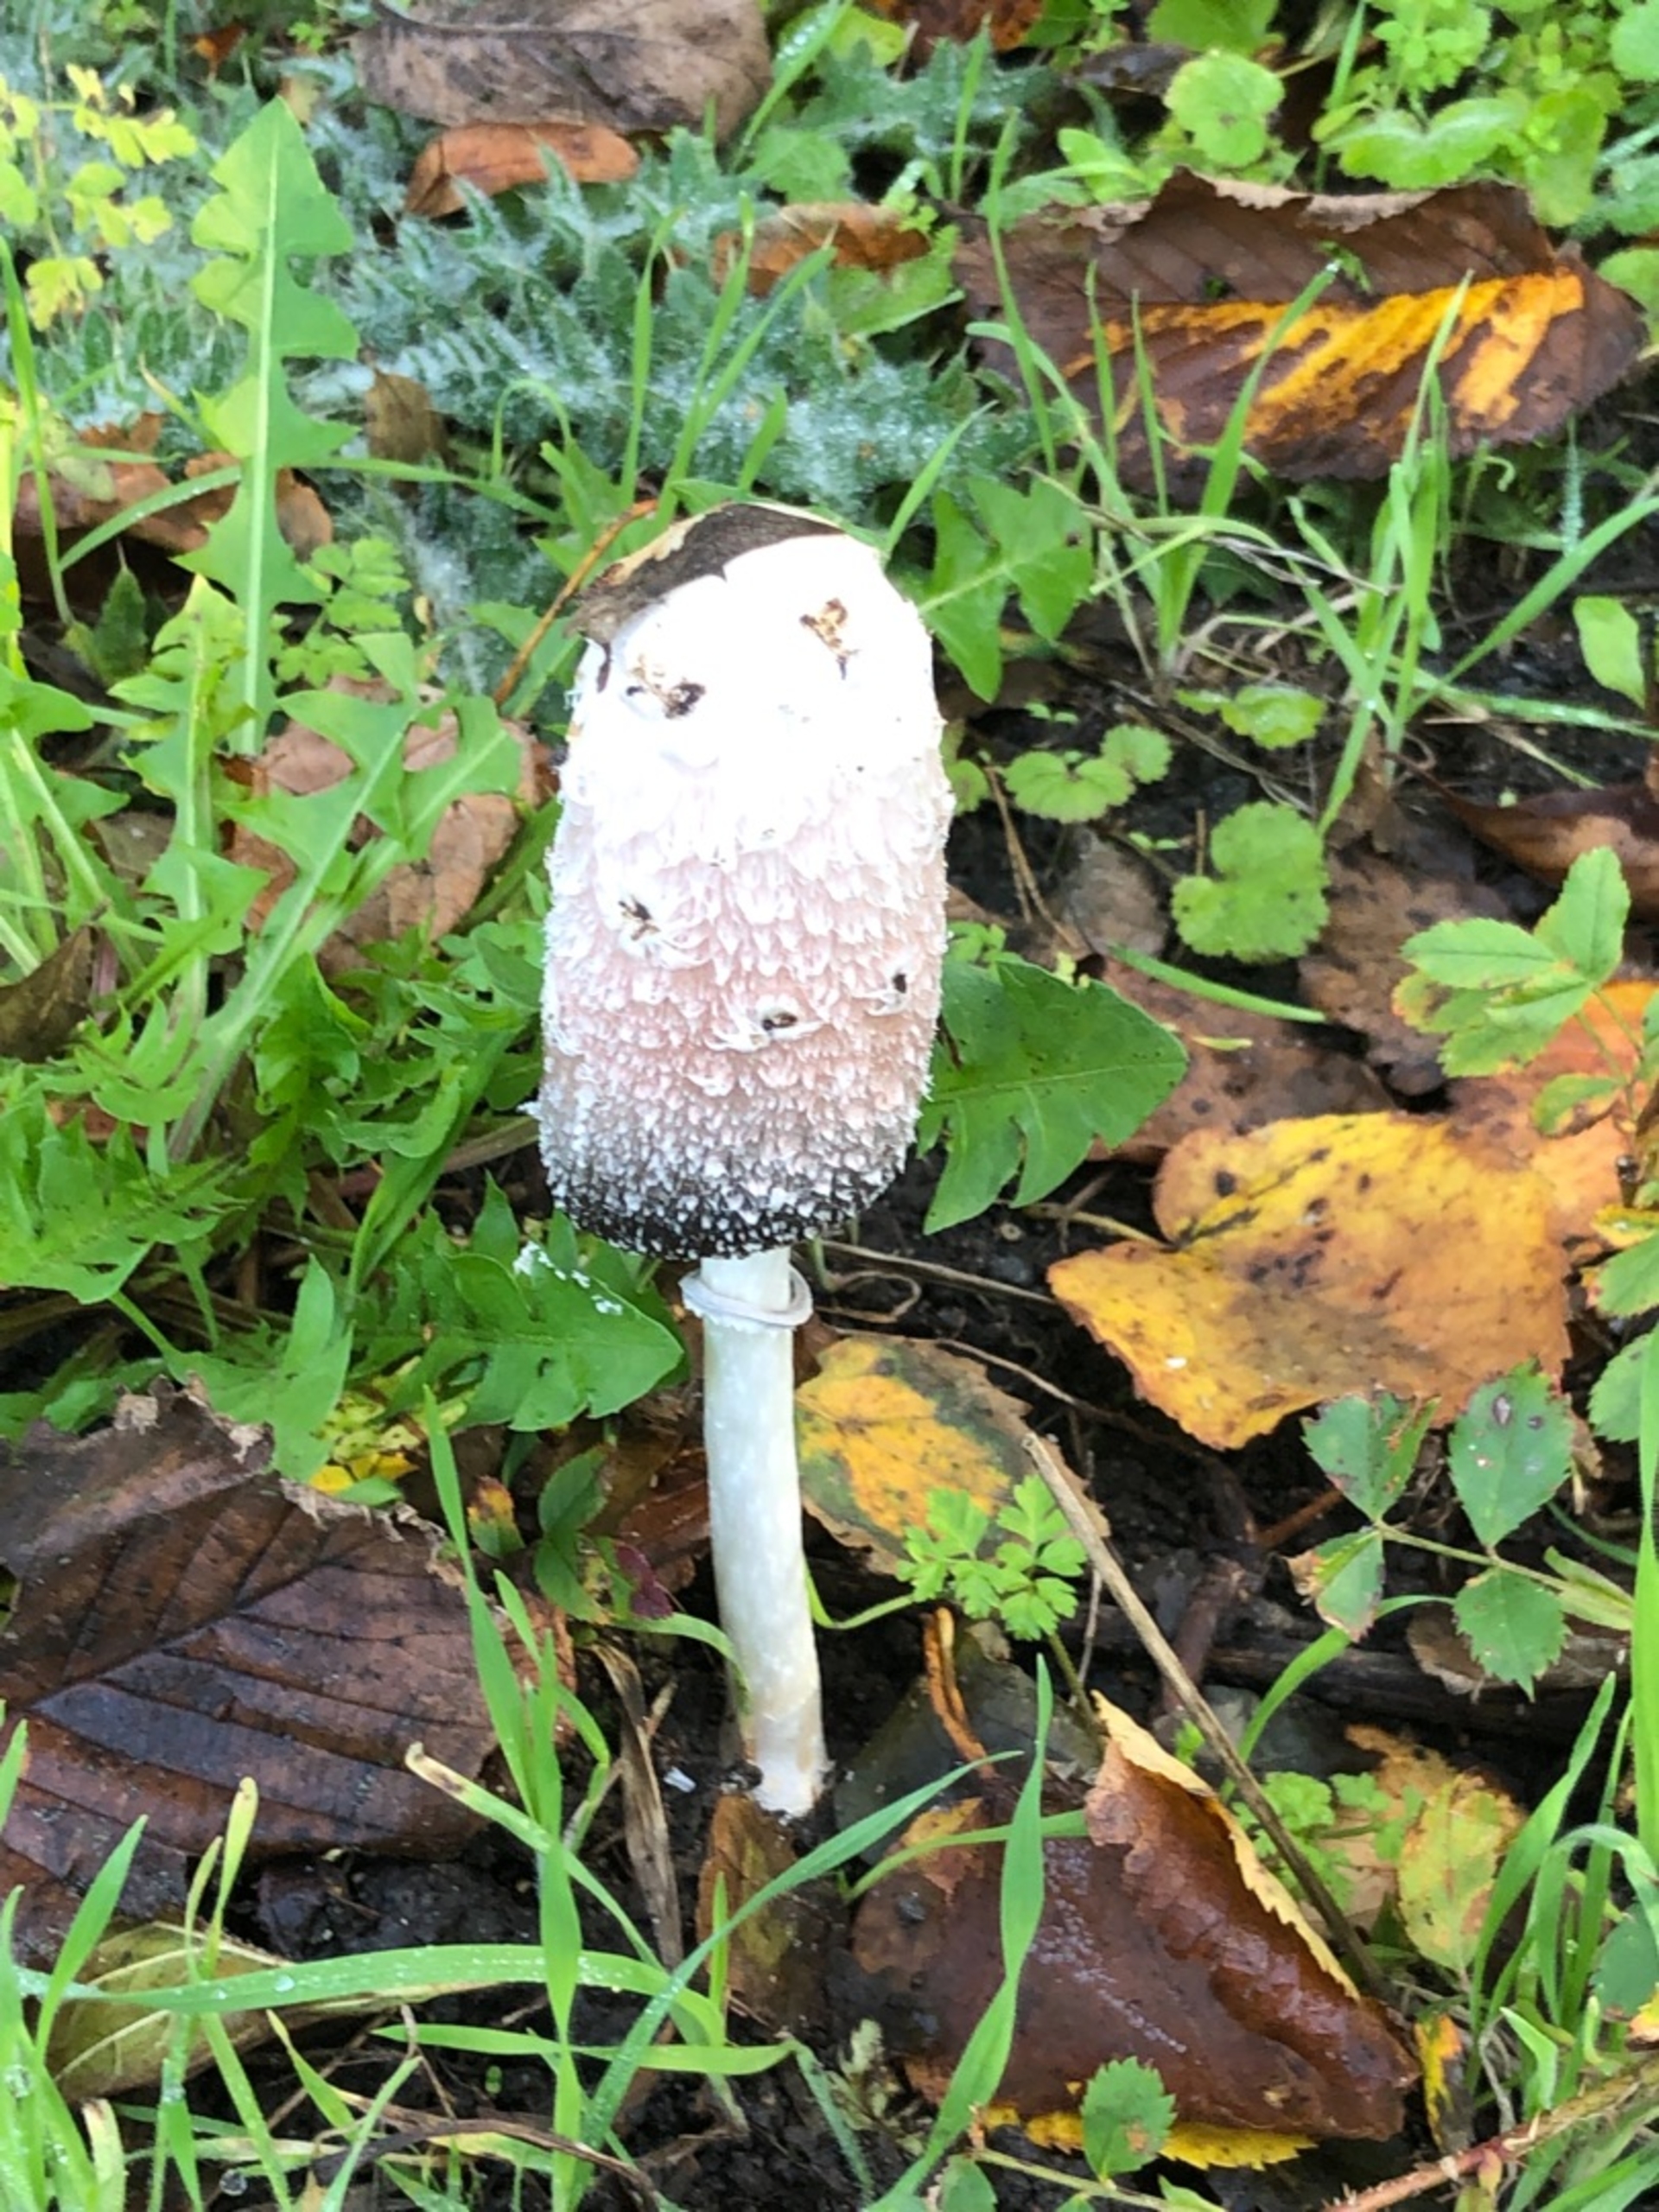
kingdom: Fungi
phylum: Basidiomycota
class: Agaricomycetes
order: Agaricales
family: Agaricaceae
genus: Coprinus
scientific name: Coprinus comatus
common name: Stor parykhat
